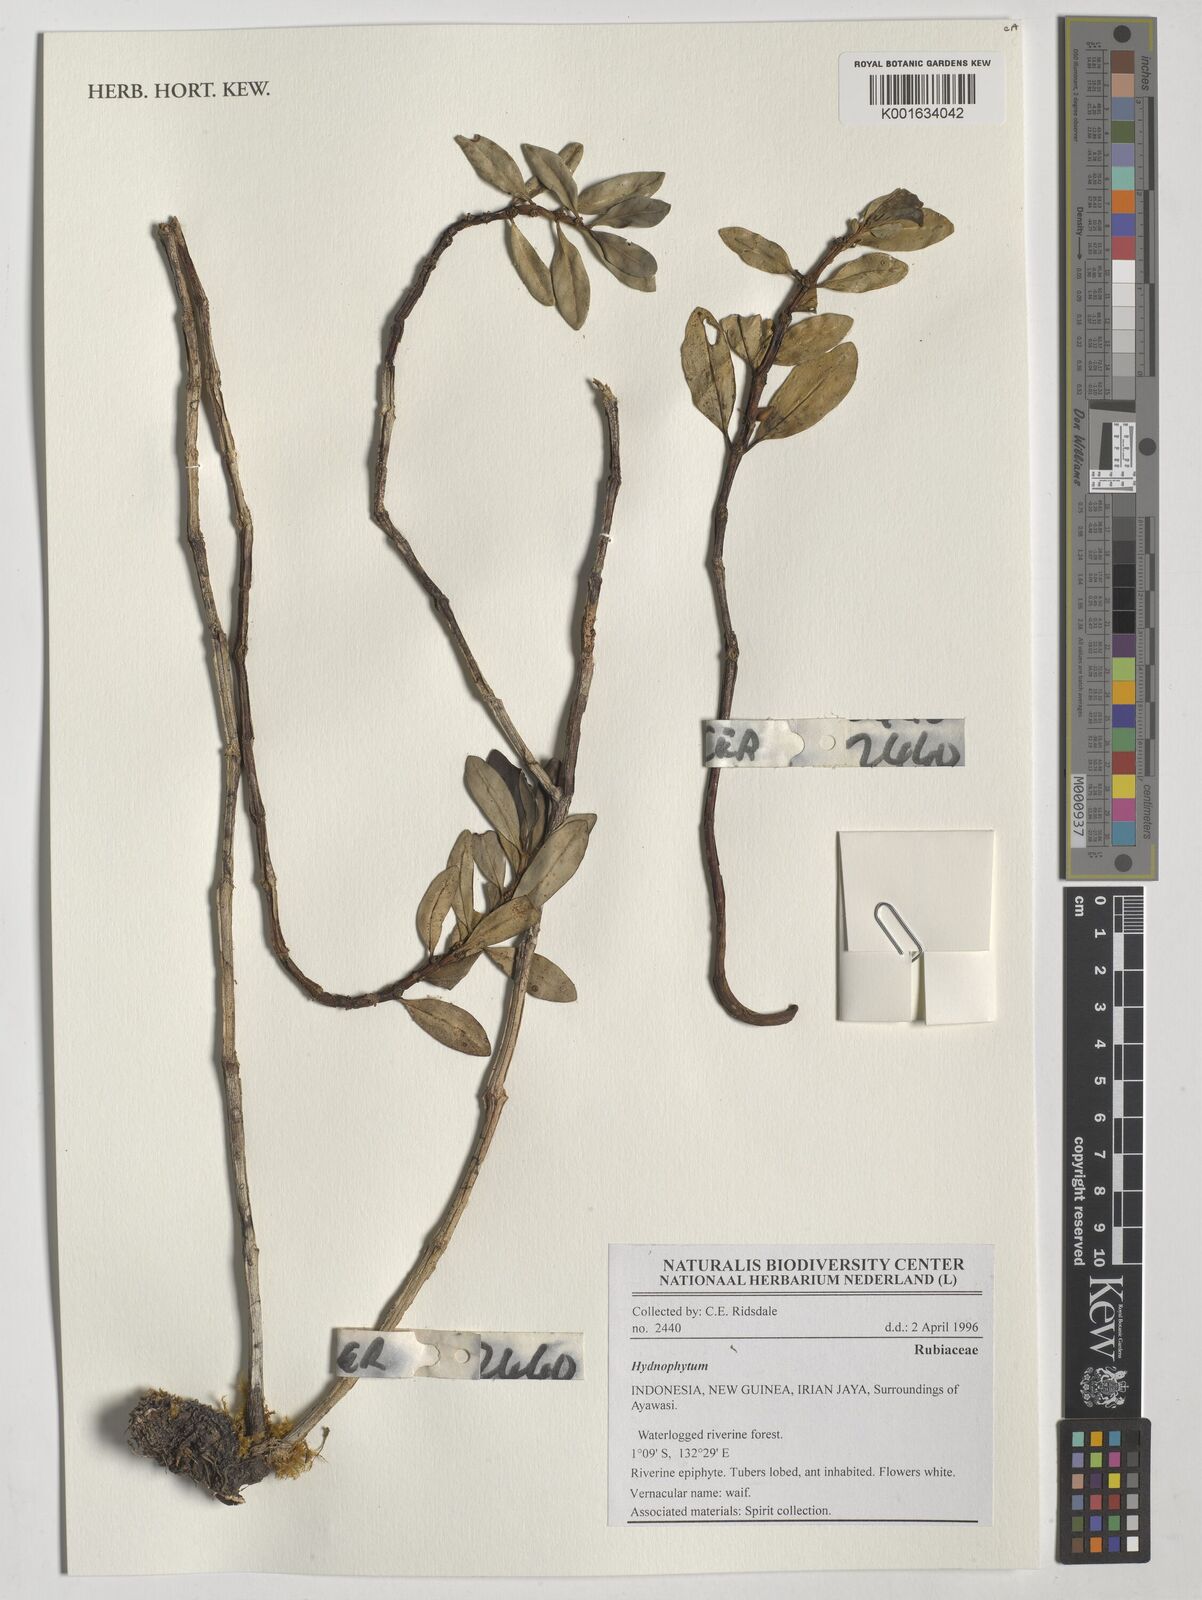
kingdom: Plantae
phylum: Tracheophyta
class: Magnoliopsida
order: Gentianales
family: Rubiaceae
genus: Hydnophytum
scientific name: Hydnophytum
